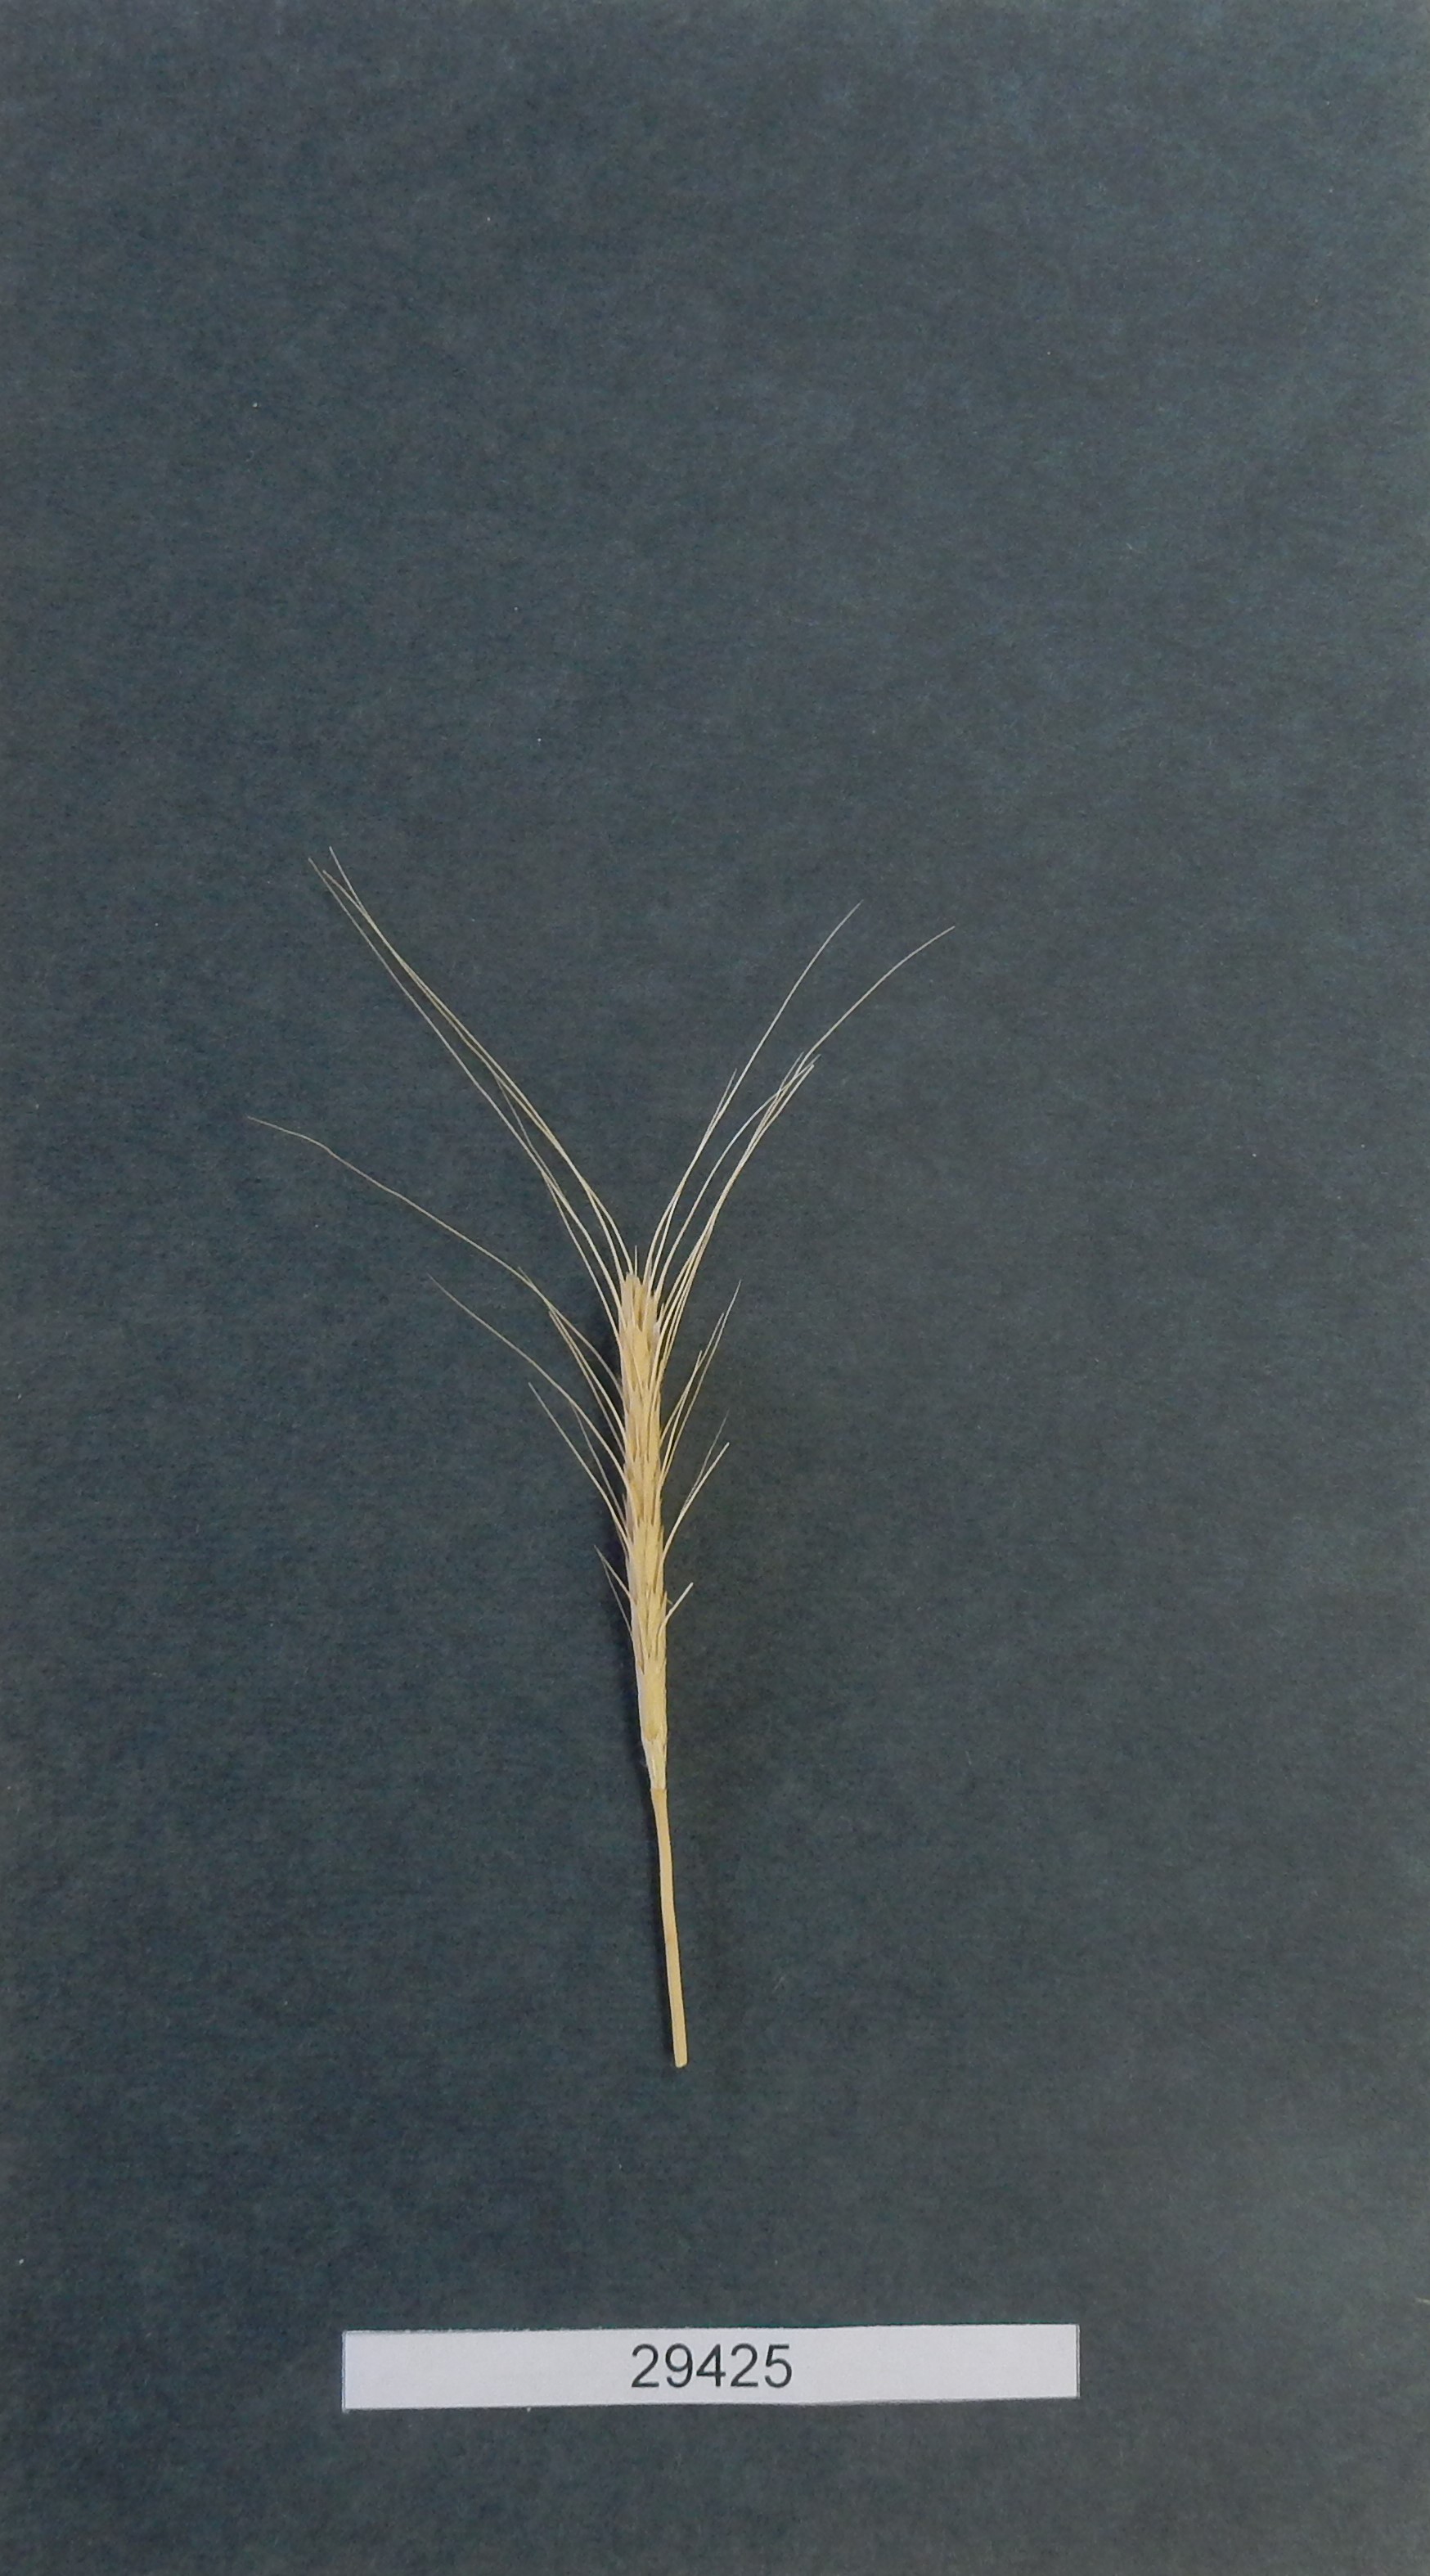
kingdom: Plantae
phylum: Tracheophyta
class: Liliopsida
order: Poales
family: Poaceae
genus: Triticum
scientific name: Triticum urartu
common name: Red wild einkorn
